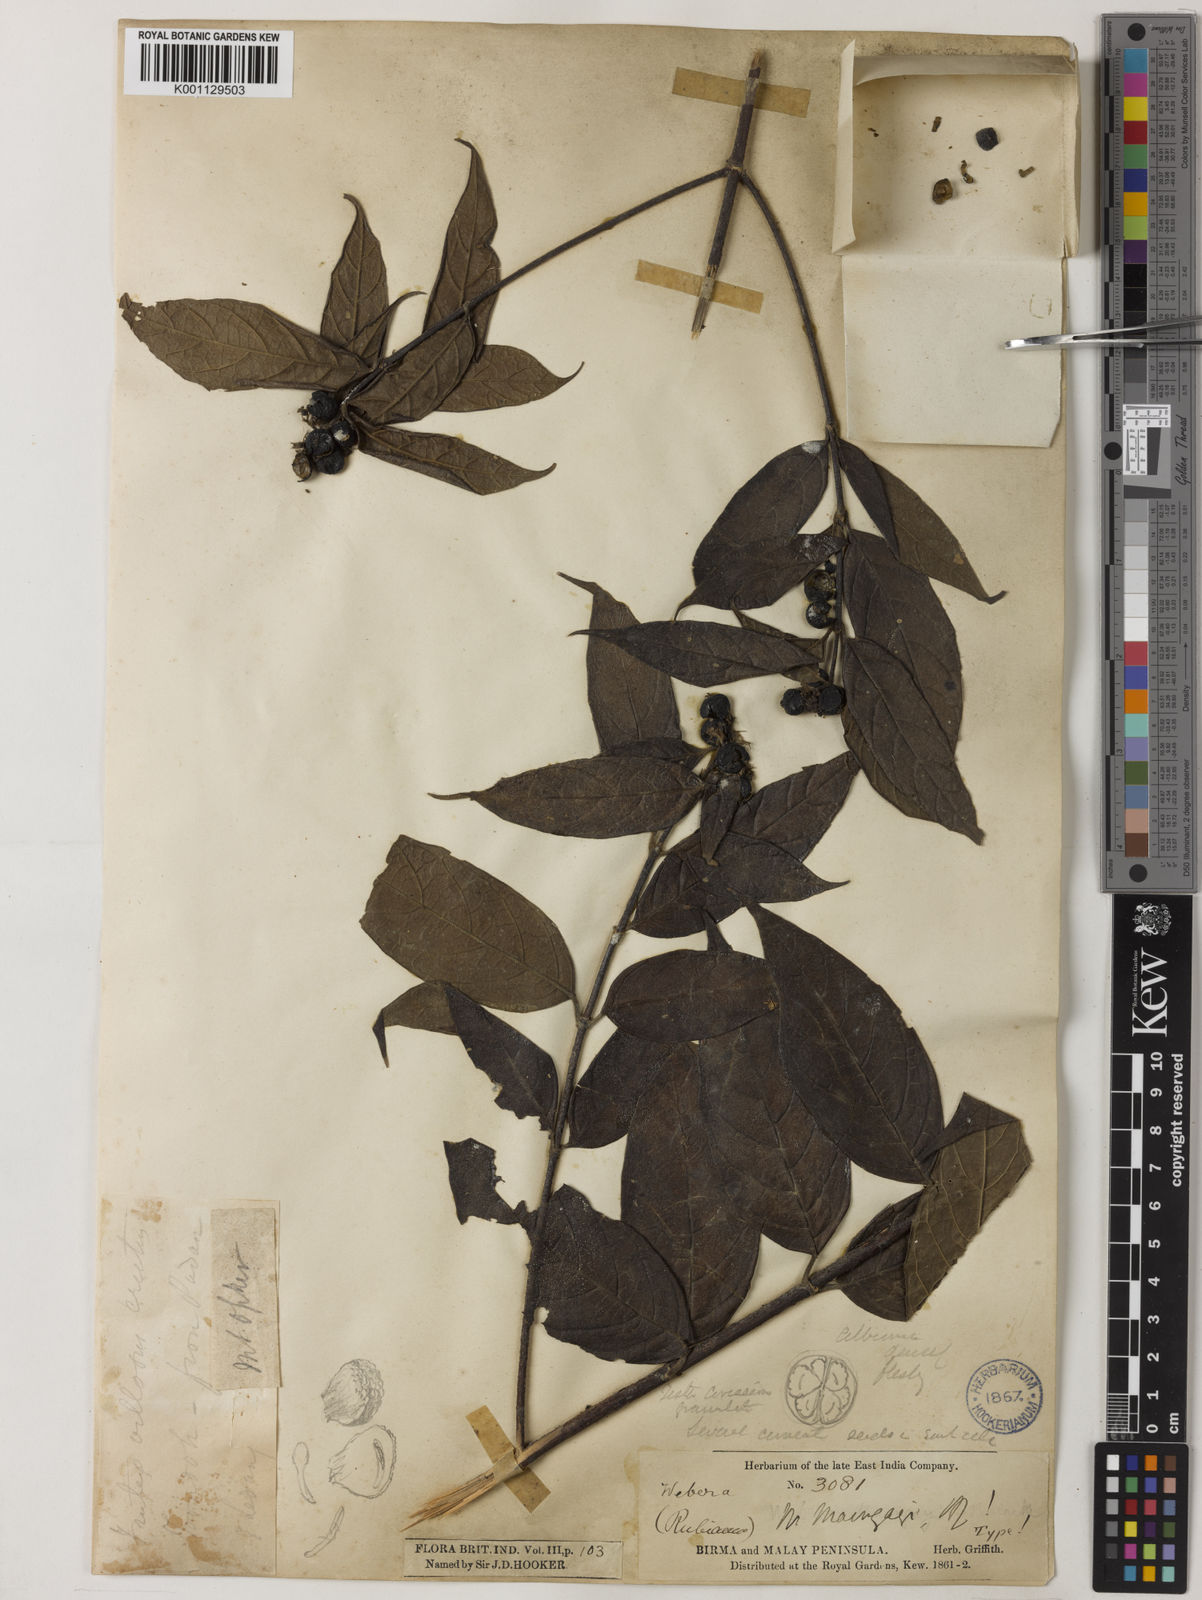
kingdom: Plantae
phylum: Tracheophyta
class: Magnoliopsida
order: Gentianales
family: Rubiaceae
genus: Tarenna
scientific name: Tarenna maingayi
